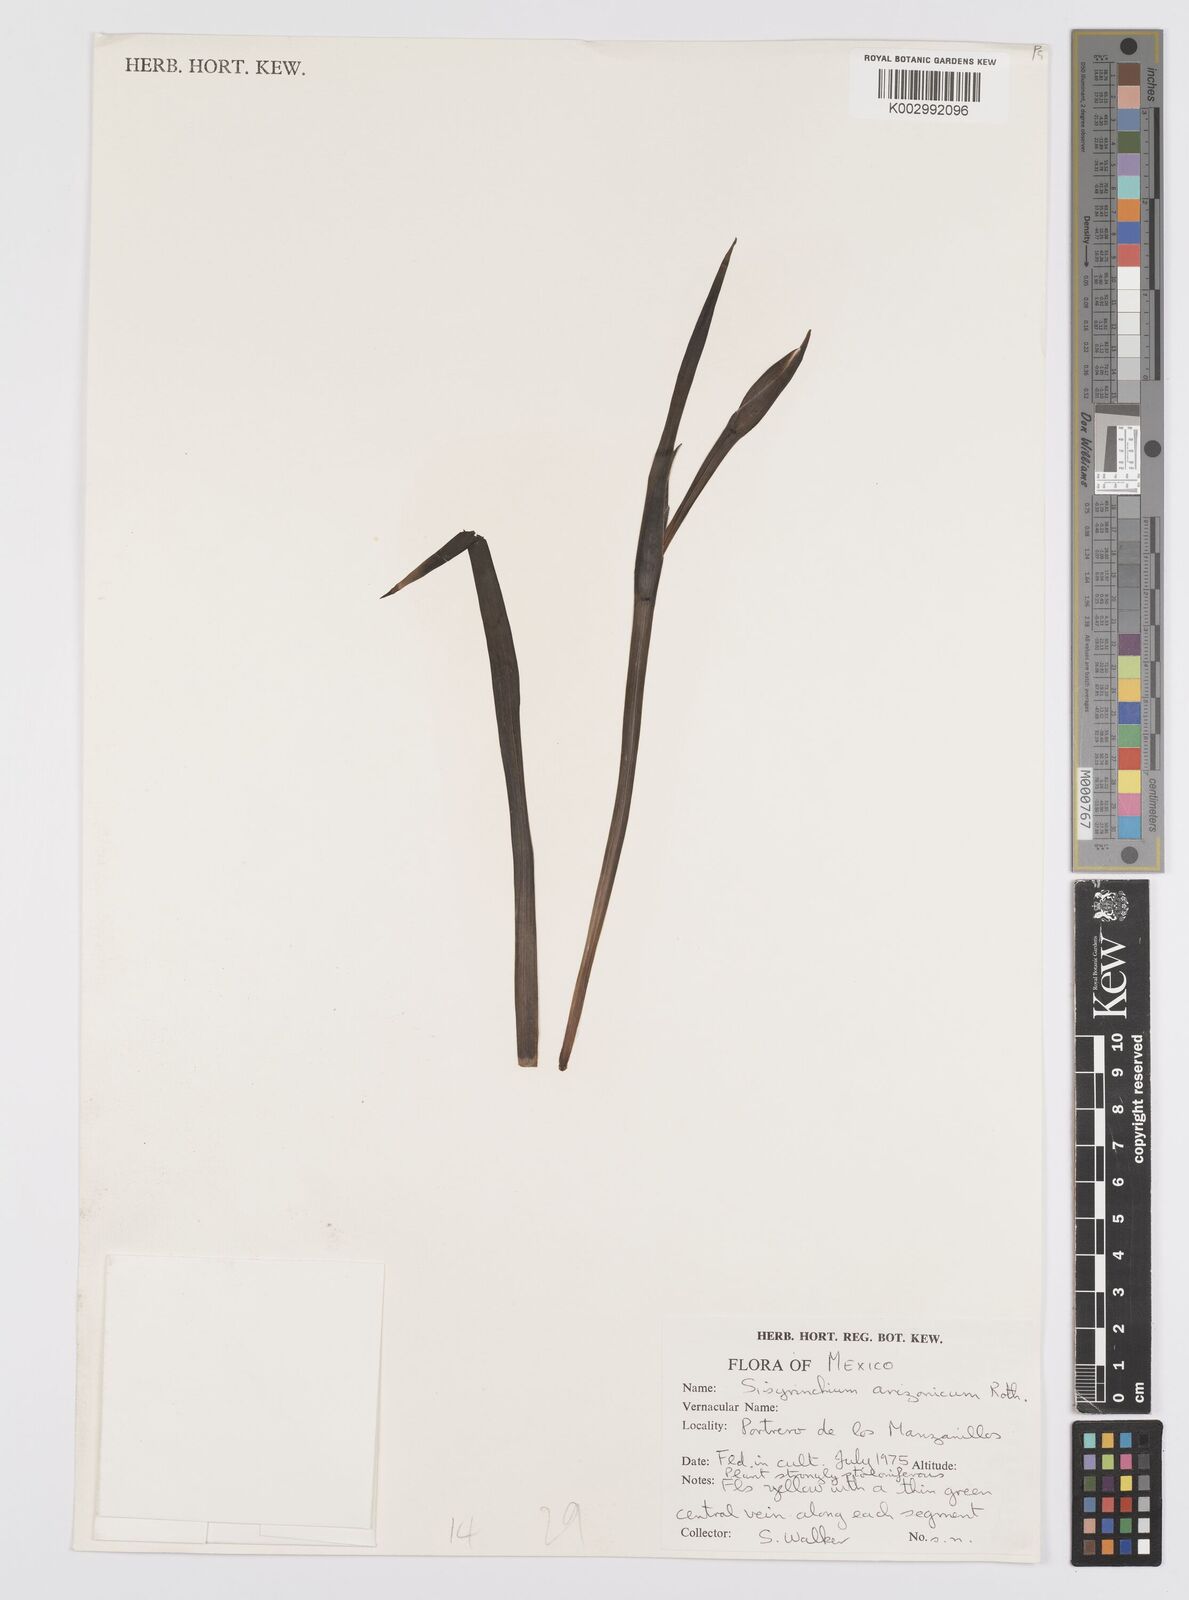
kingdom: Plantae
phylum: Tracheophyta
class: Liliopsida
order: Asparagales
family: Iridaceae
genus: Sisyrinchium
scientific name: Sisyrinchium arizonicum
